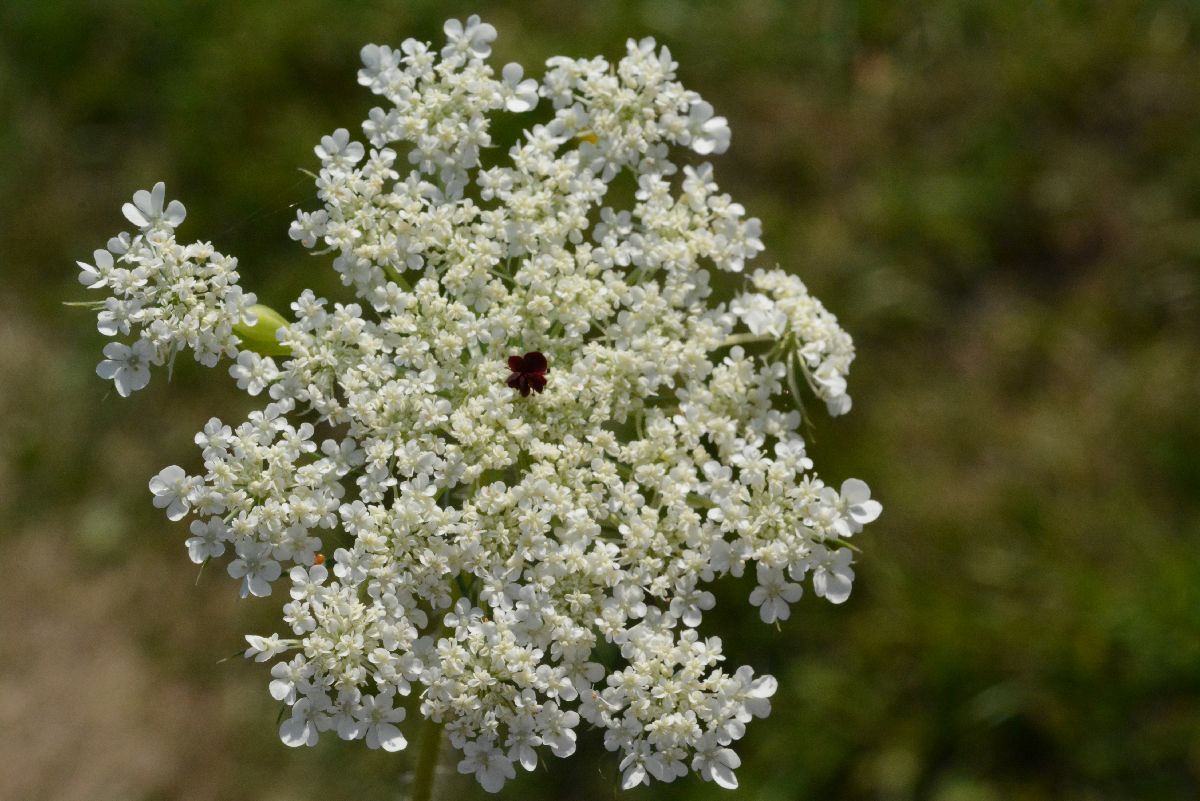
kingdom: Plantae
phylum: Tracheophyta
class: Magnoliopsida
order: Apiales
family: Apiaceae
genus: Daucus
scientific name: Daucus carota
